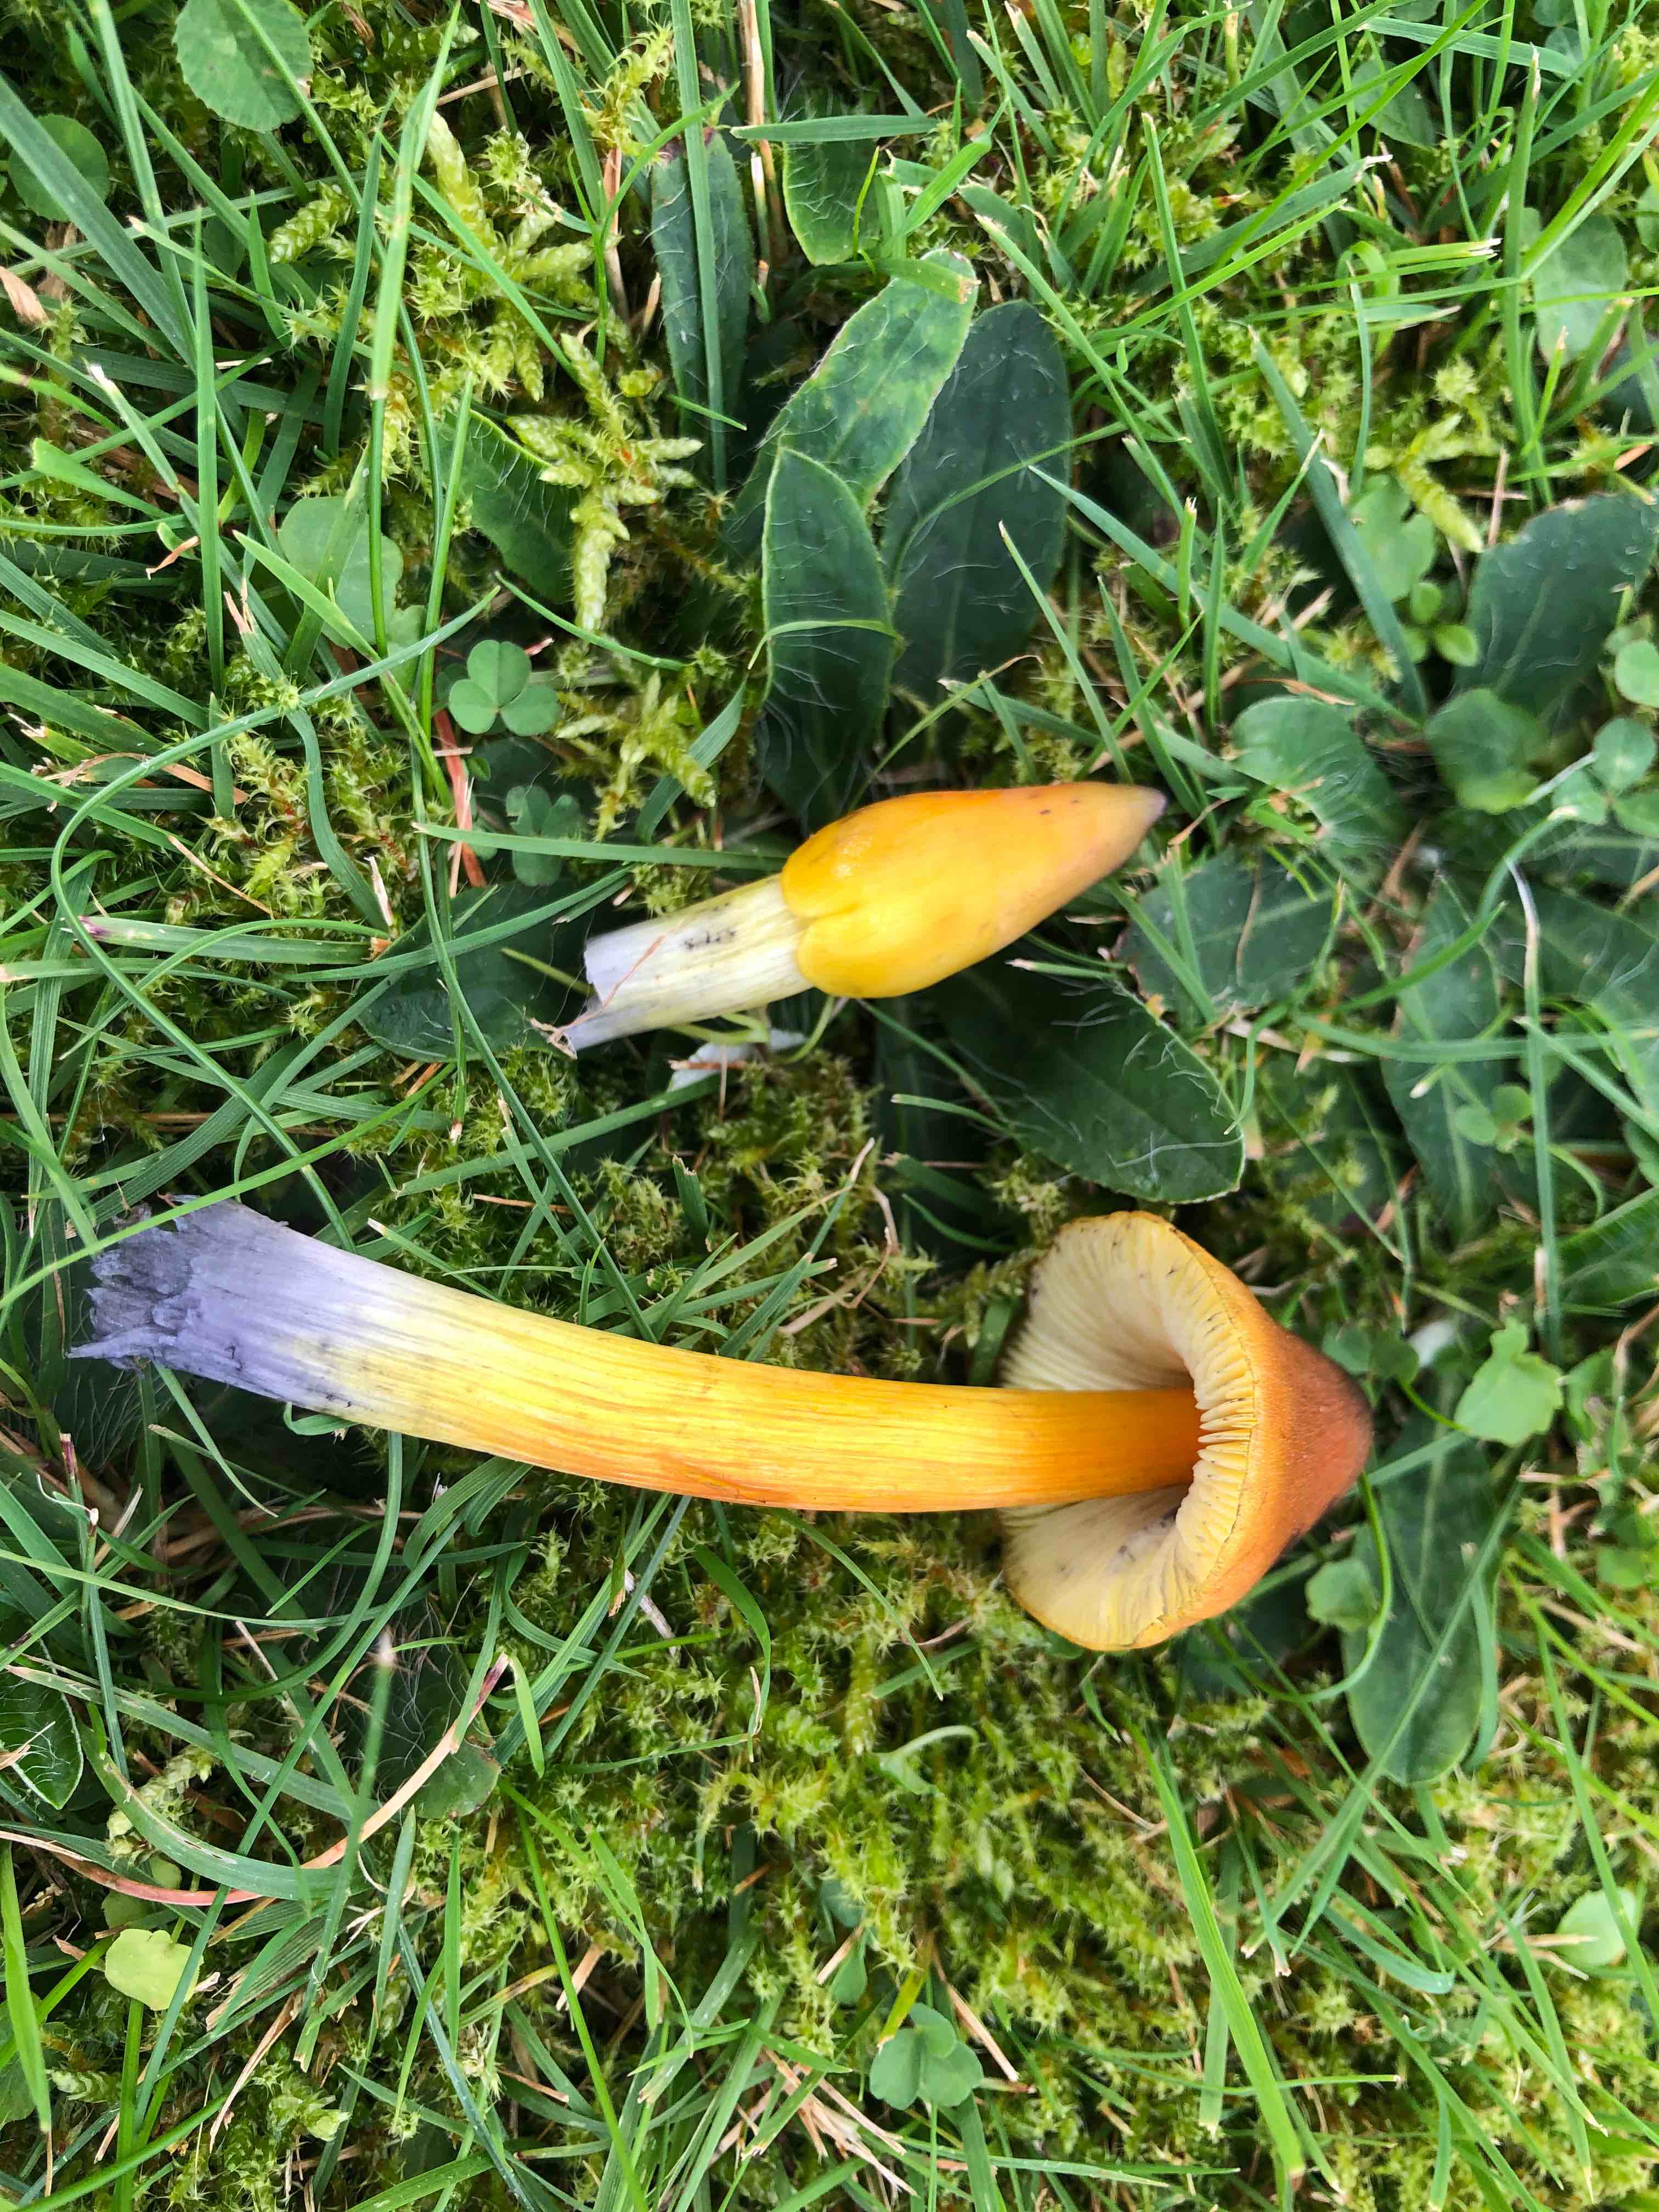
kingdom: Fungi
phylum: Basidiomycota
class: Agaricomycetes
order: Agaricales
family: Hygrophoraceae
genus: Hygrocybe
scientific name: Hygrocybe conica
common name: kegle-vokshat
